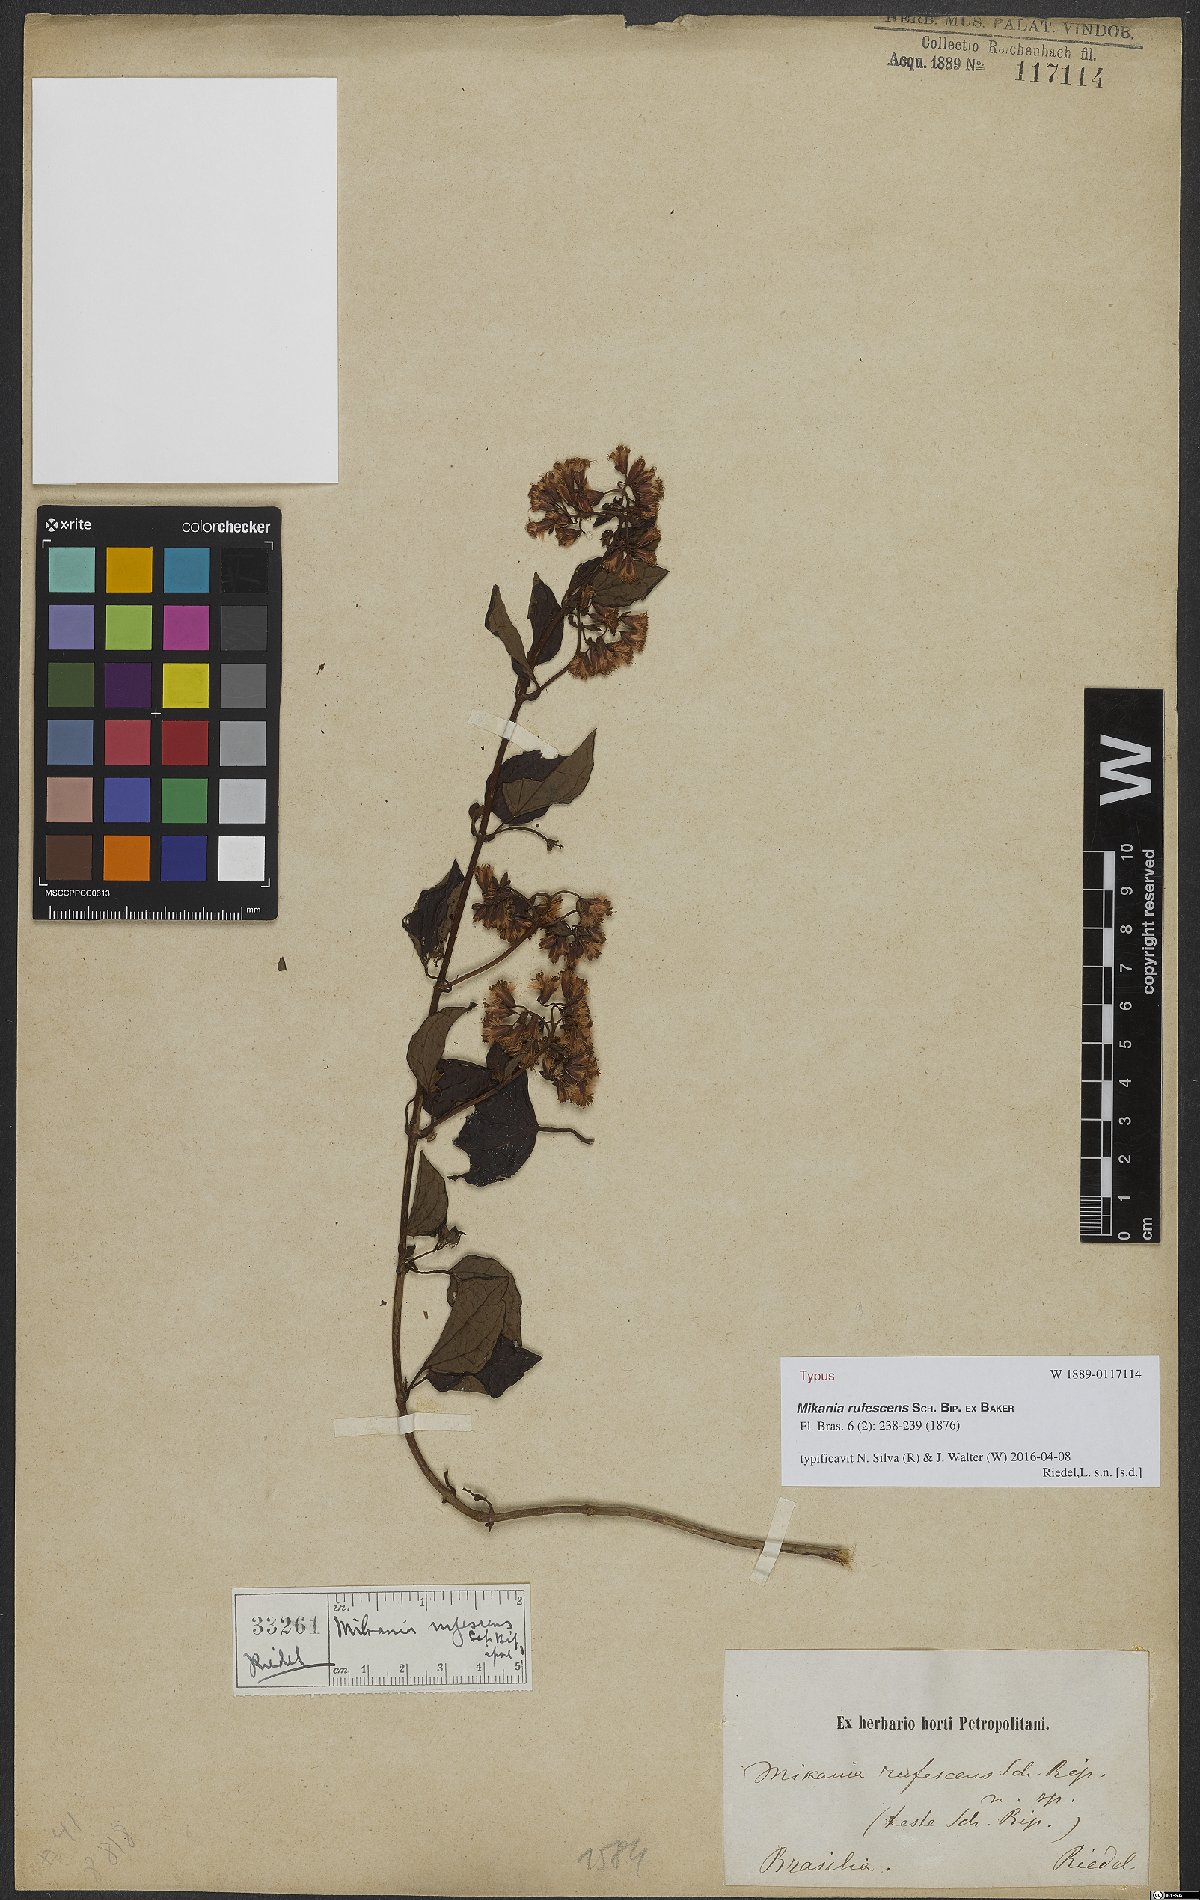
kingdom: Plantae
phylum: Tracheophyta
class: Magnoliopsida
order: Asterales
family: Asteraceae
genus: Mikania
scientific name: Mikania rufescens
